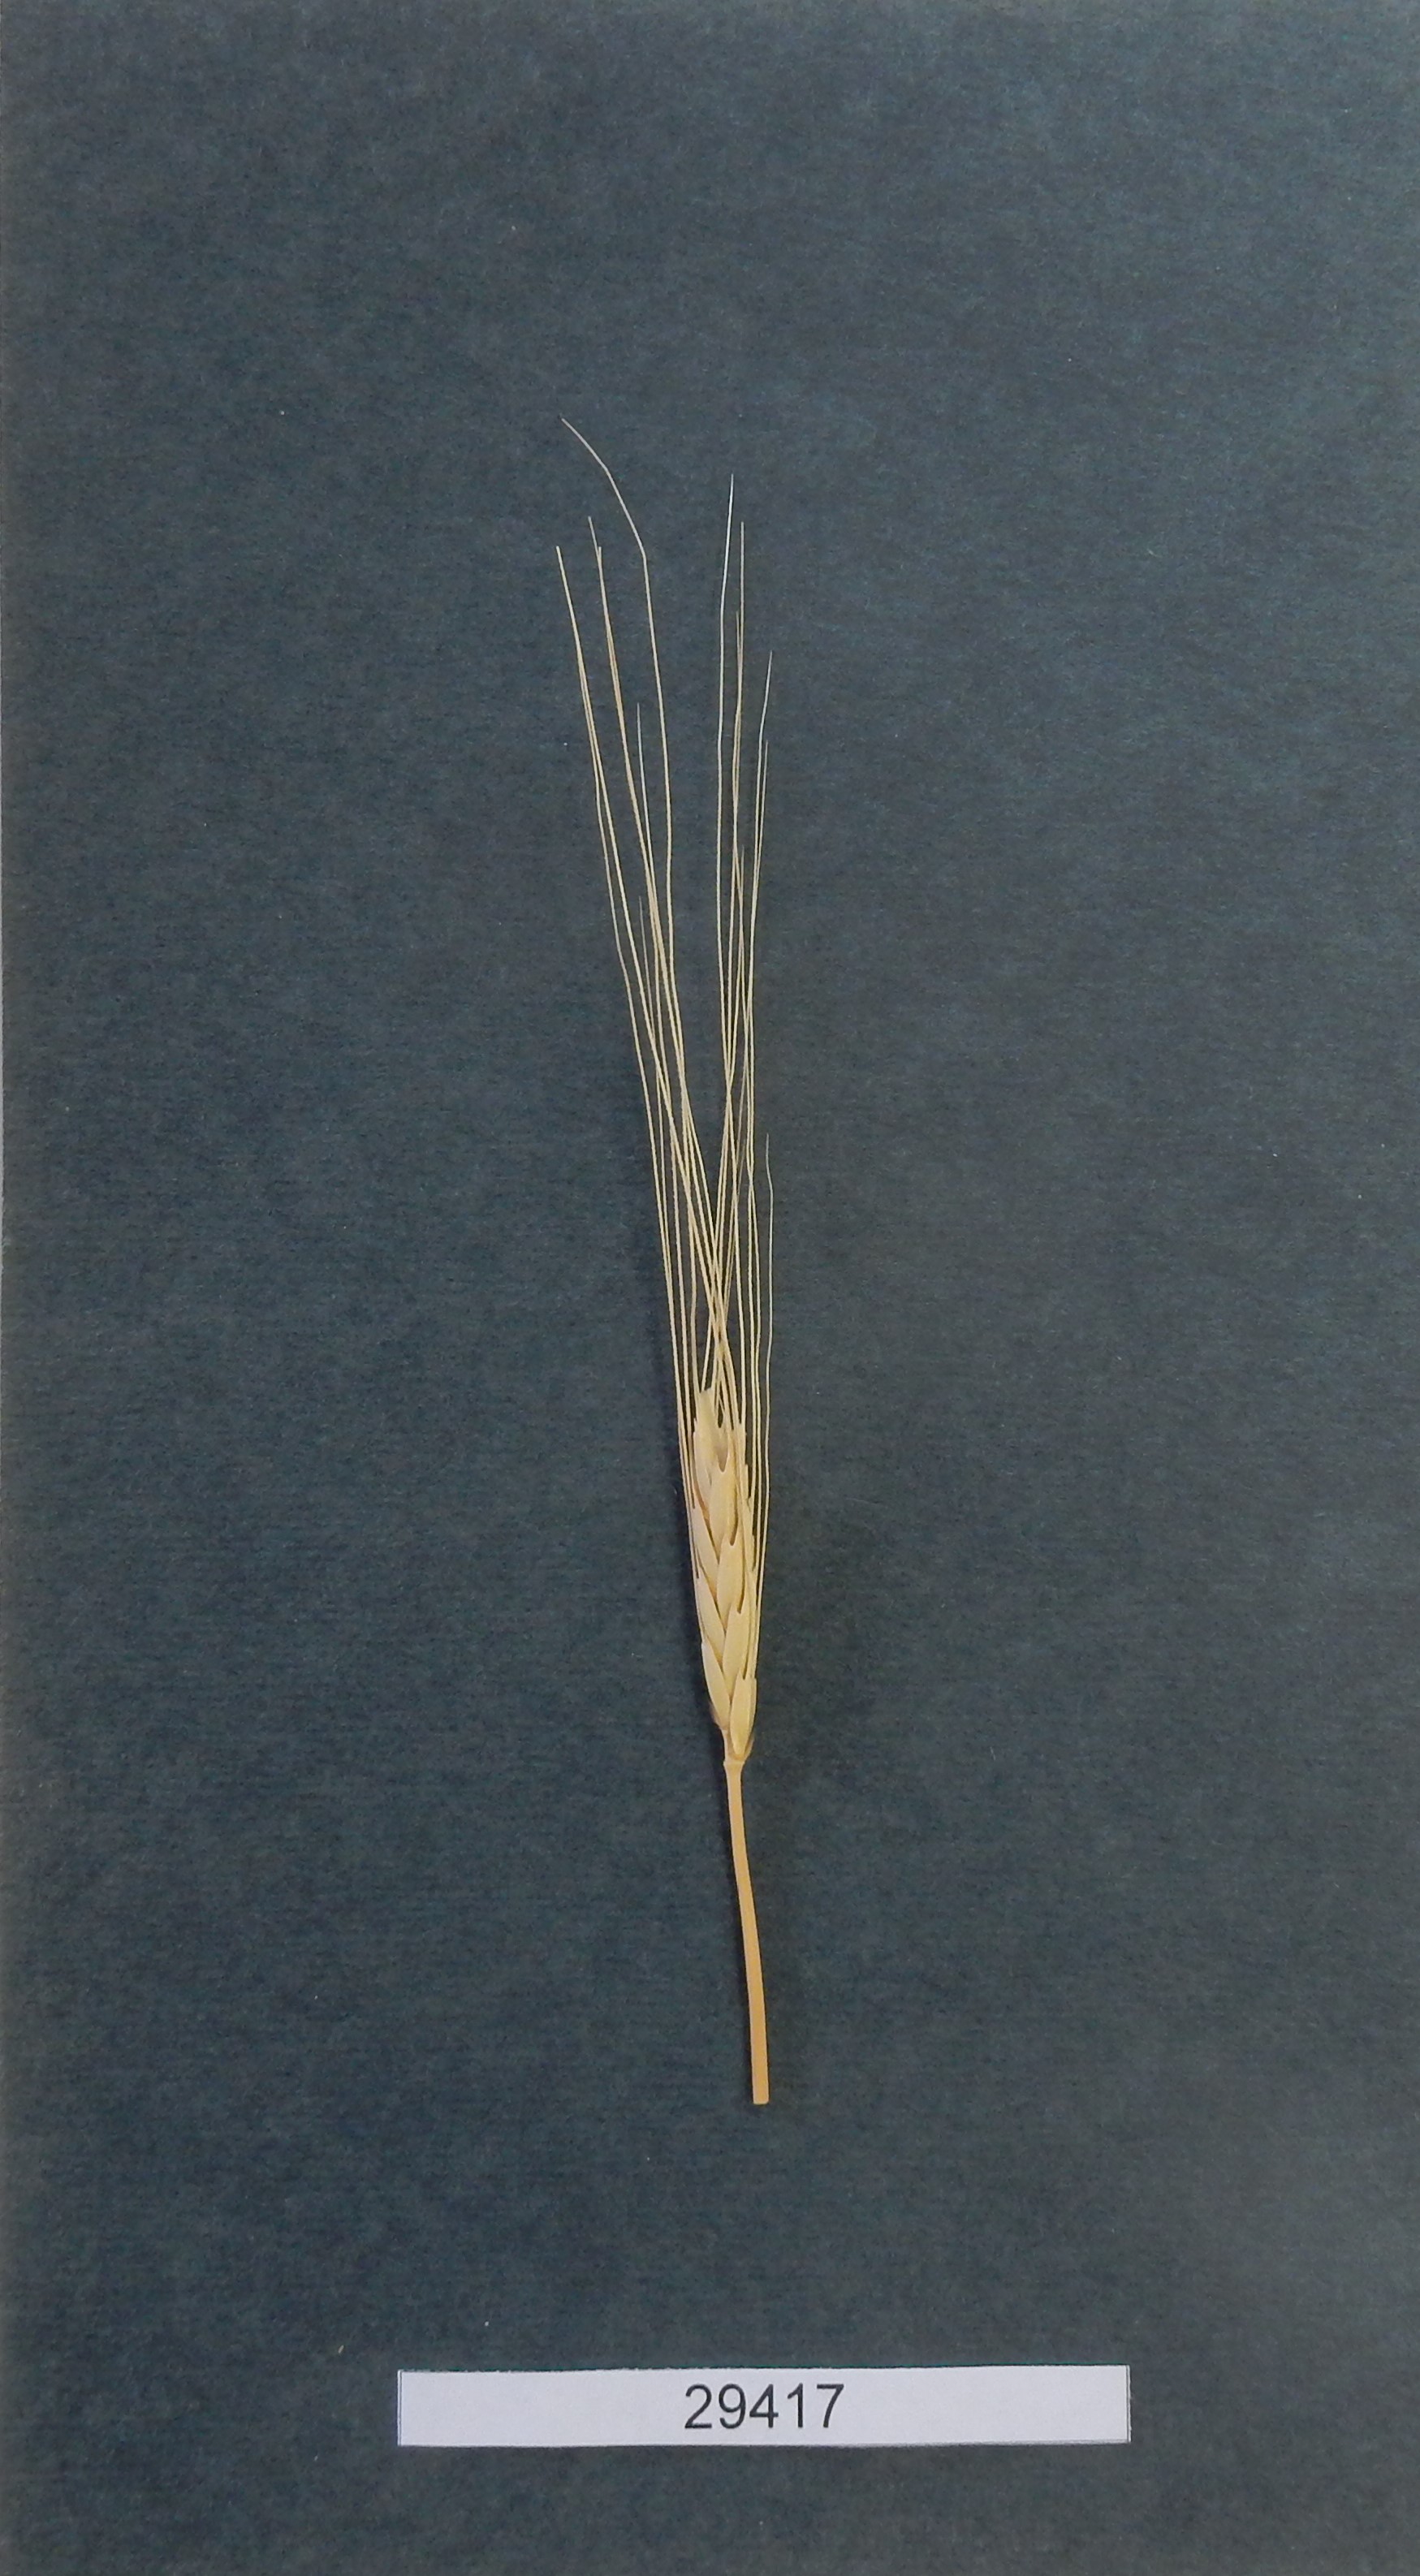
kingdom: Plantae
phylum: Tracheophyta
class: Liliopsida
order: Poales
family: Poaceae
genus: Triticum
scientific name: Triticum monococcum
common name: Wheat
